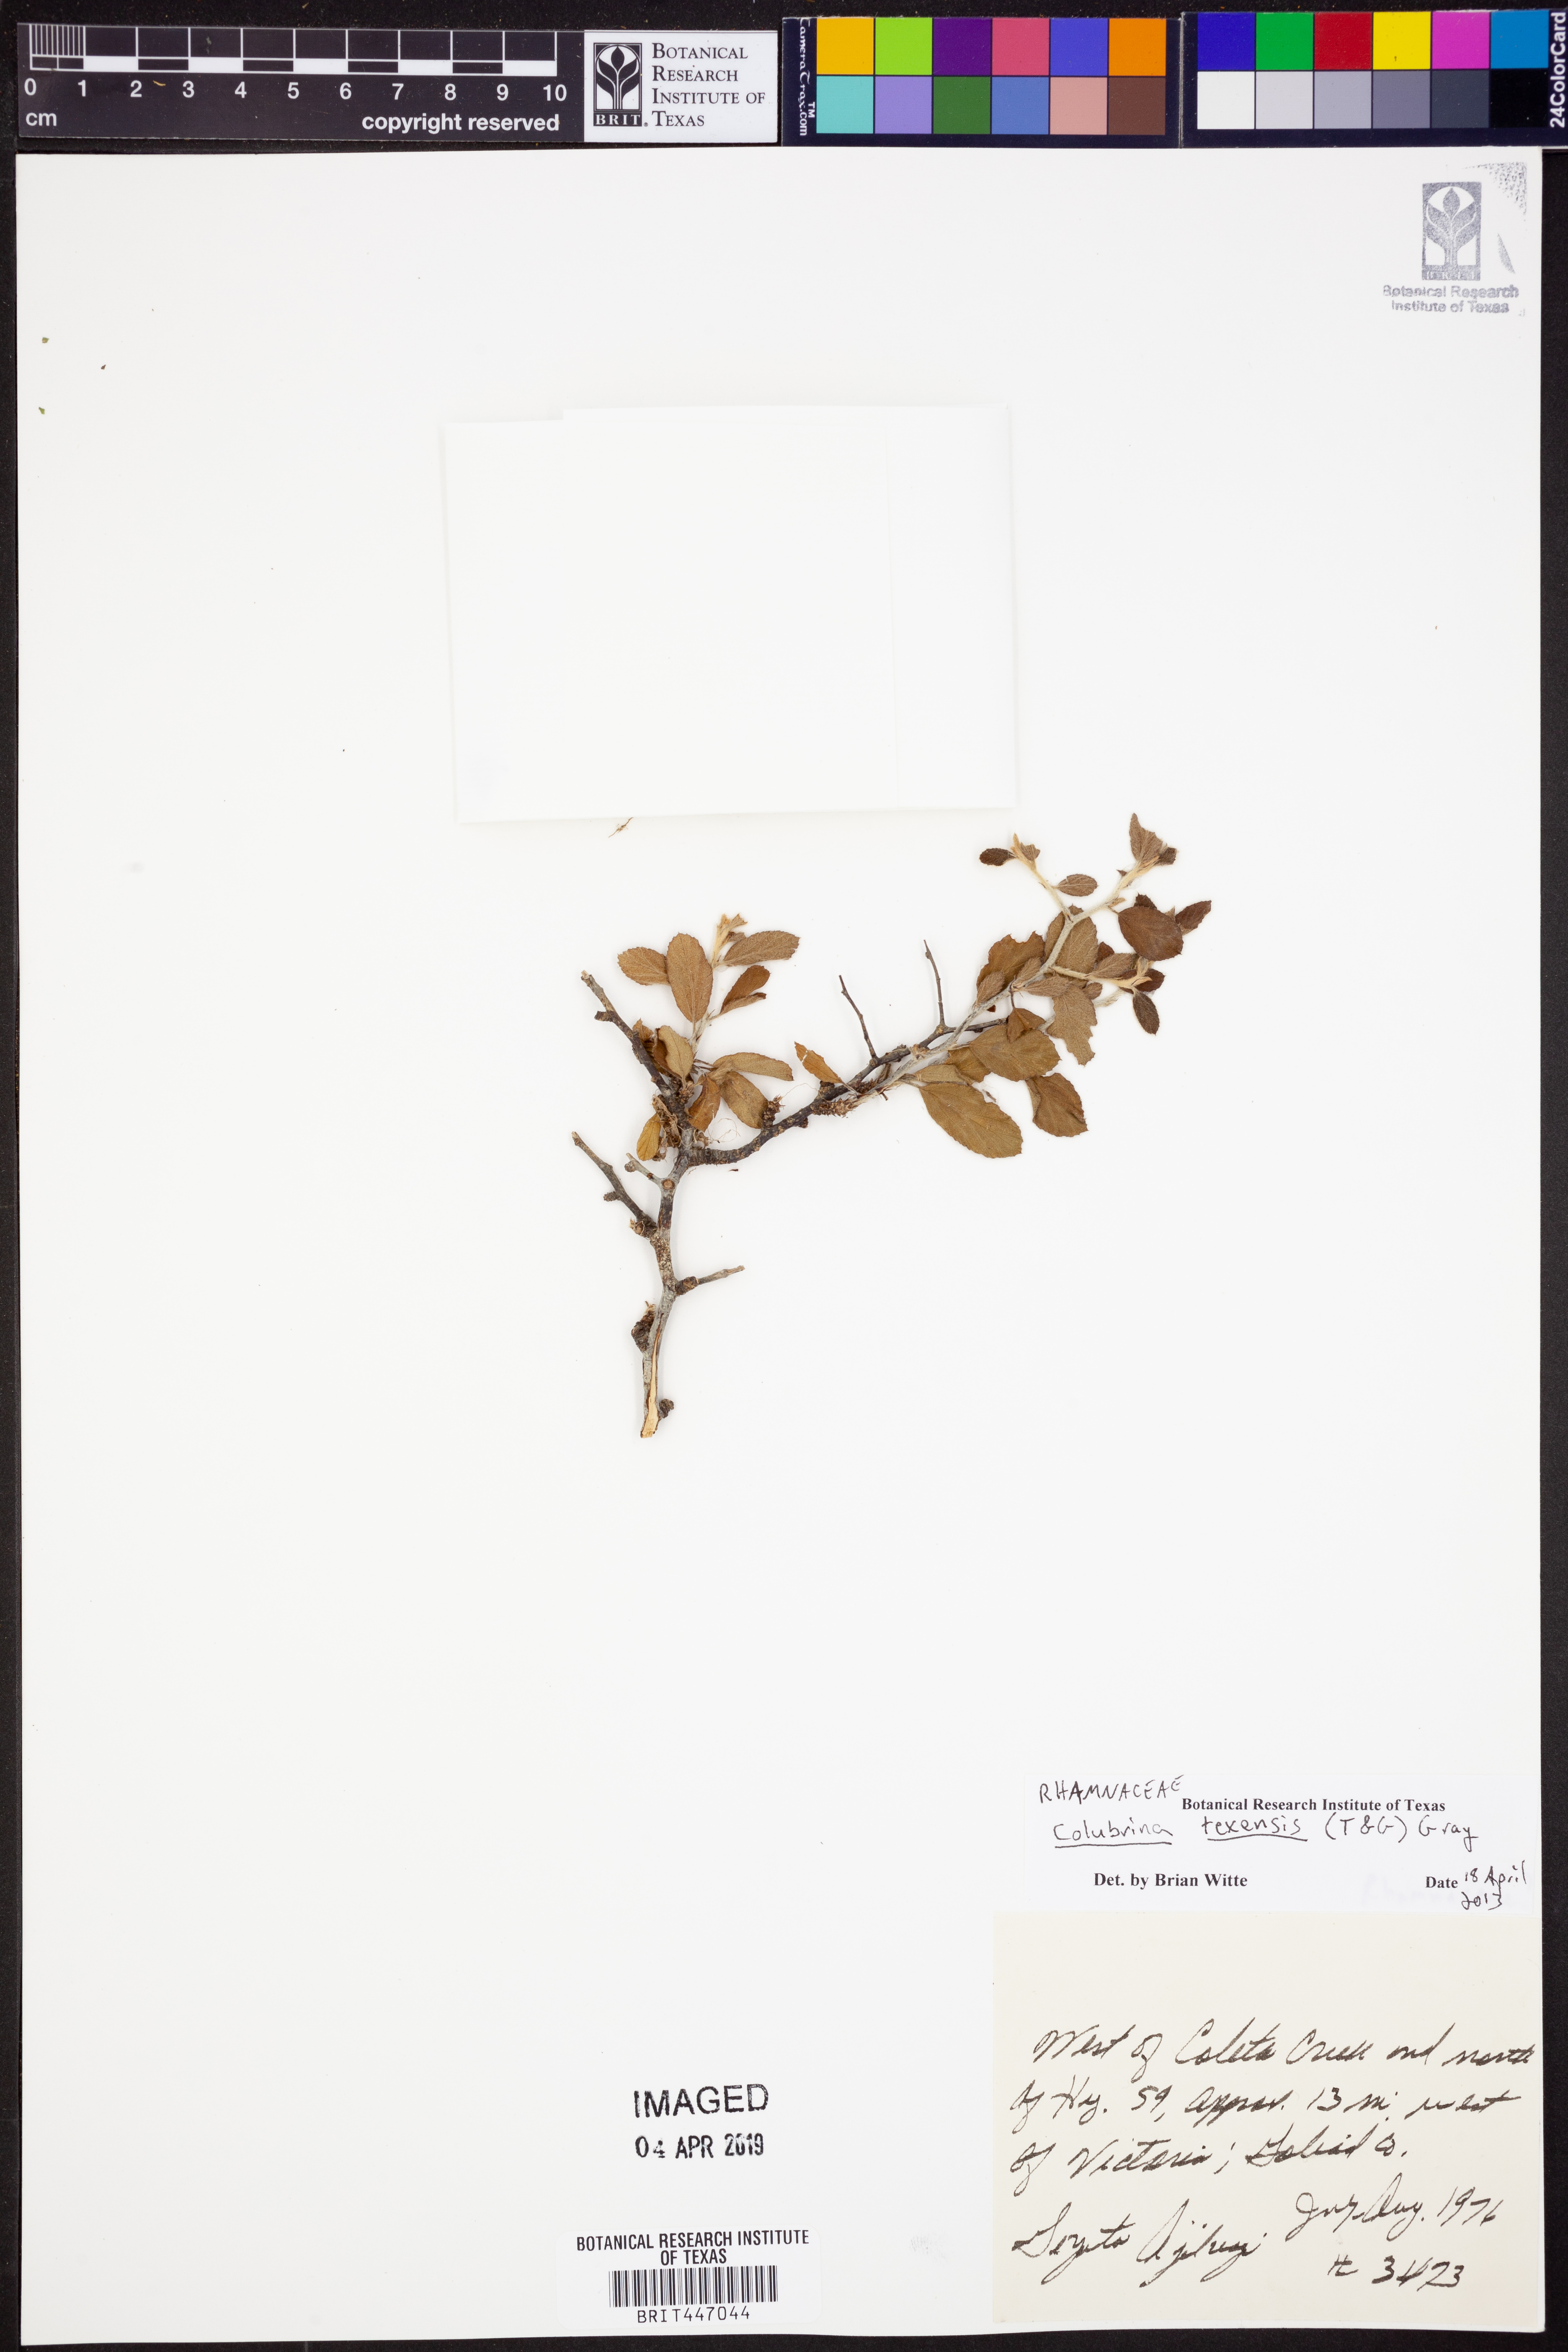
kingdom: Plantae
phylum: Tracheophyta
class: Magnoliopsida
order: Rosales
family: Rhamnaceae
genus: Colubrina
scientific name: Colubrina texensis
